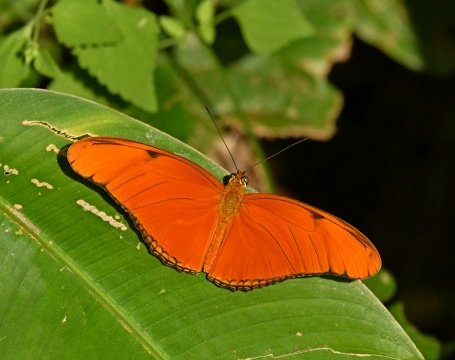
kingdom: Animalia
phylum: Arthropoda
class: Insecta
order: Lepidoptera
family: Nymphalidae
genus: Dryas
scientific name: Dryas iulia
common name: Julia
